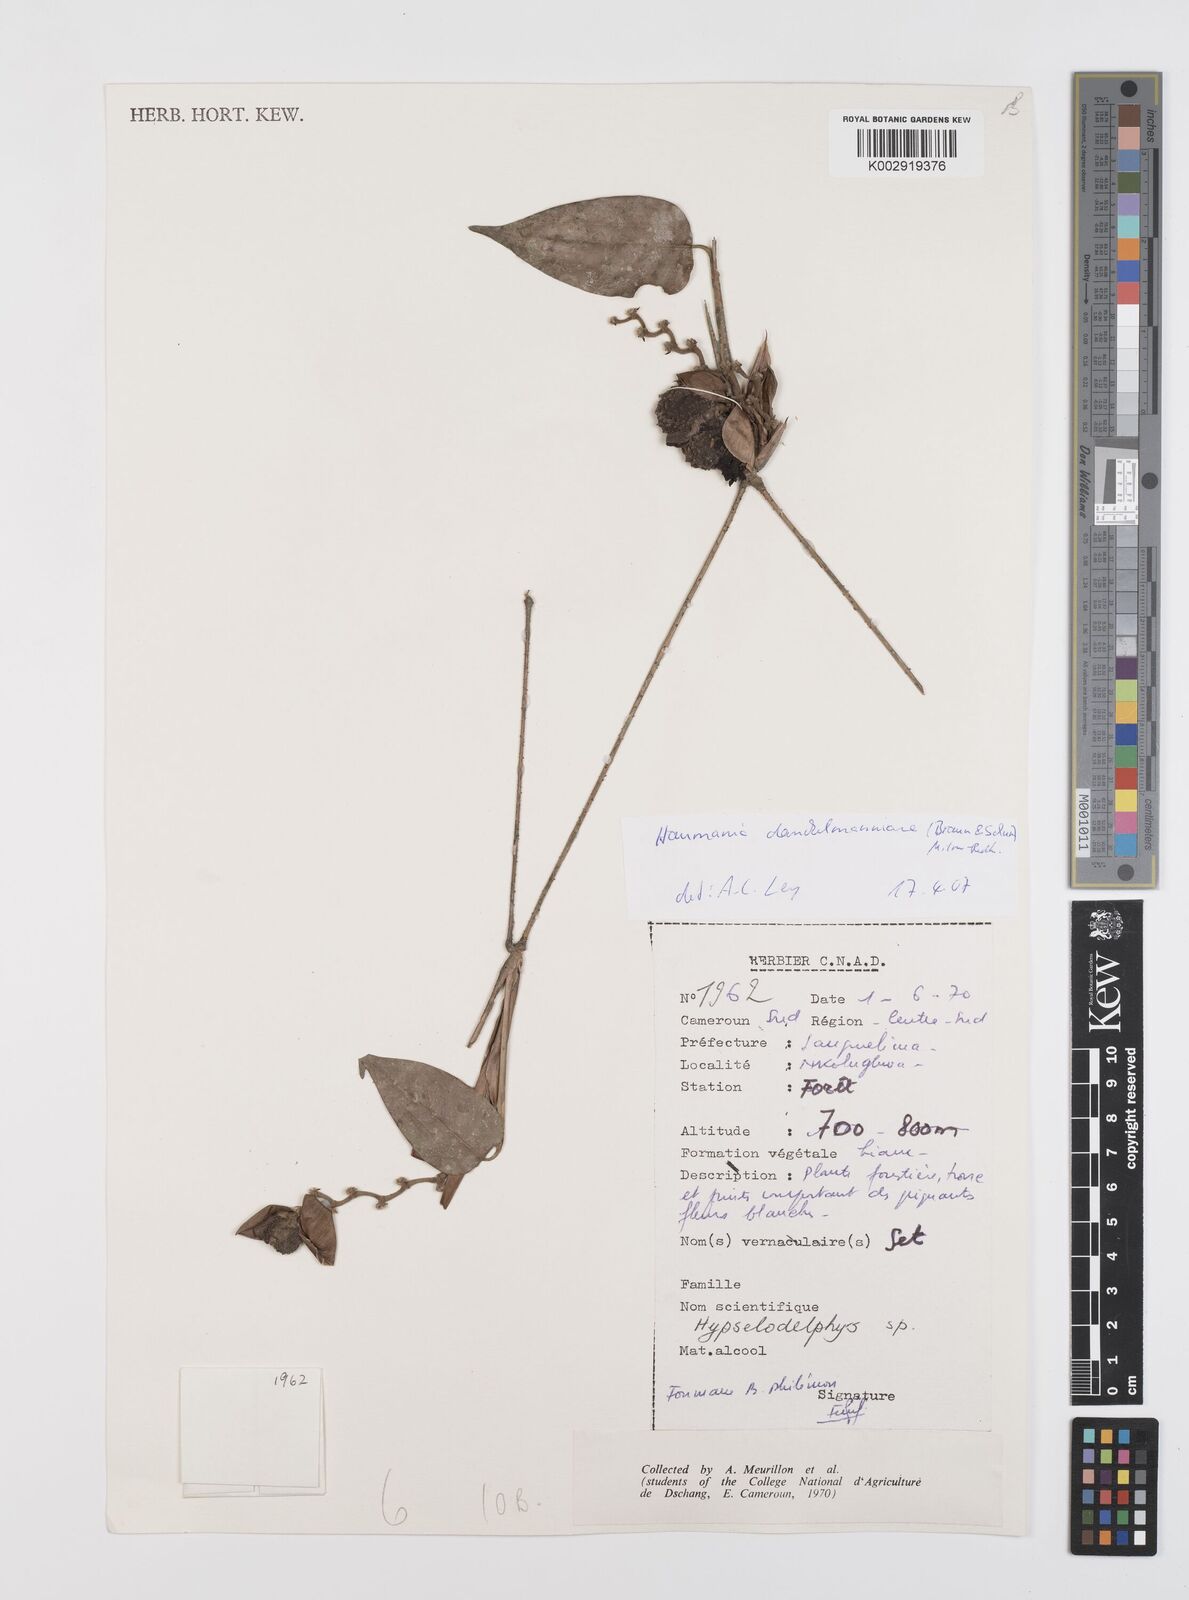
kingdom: Plantae
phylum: Tracheophyta
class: Liliopsida
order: Zingiberales
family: Marantaceae
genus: Haumania
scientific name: Haumania danckelmaniana
